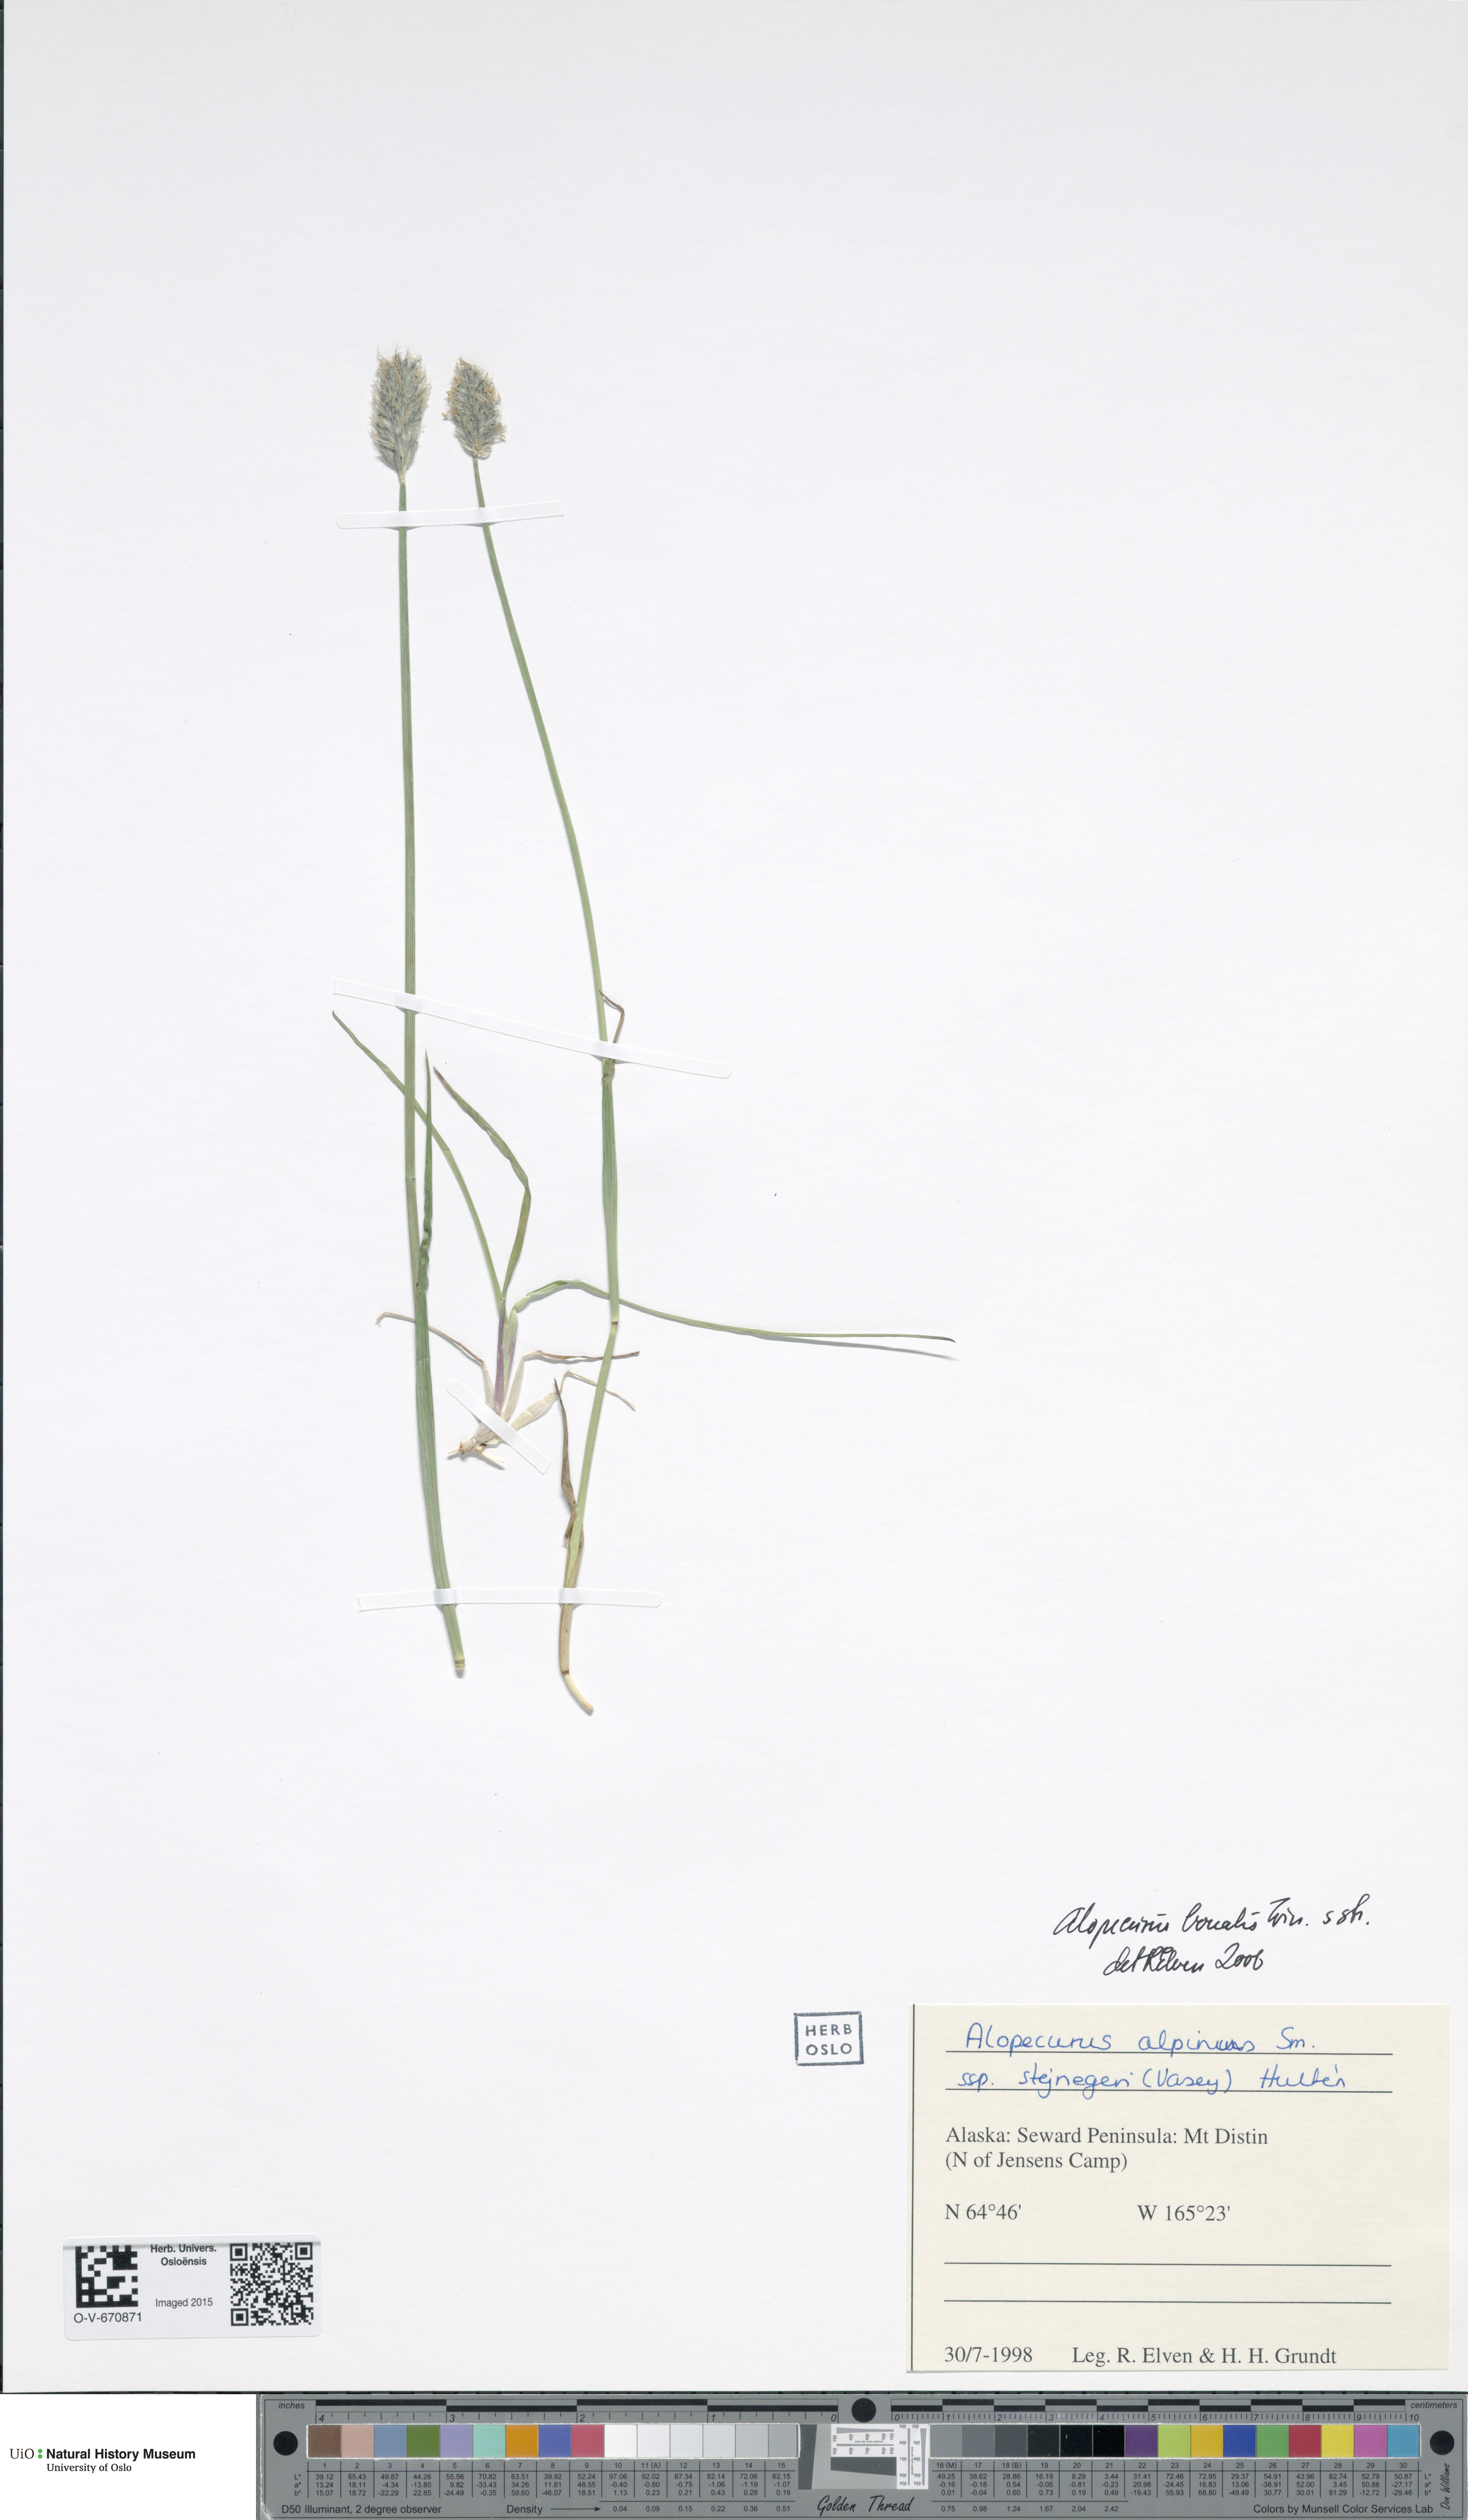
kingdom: Plantae
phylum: Tracheophyta
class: Liliopsida
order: Poales
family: Poaceae
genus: Alopecurus
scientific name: Alopecurus magellanicus
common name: Alpine foxtail
